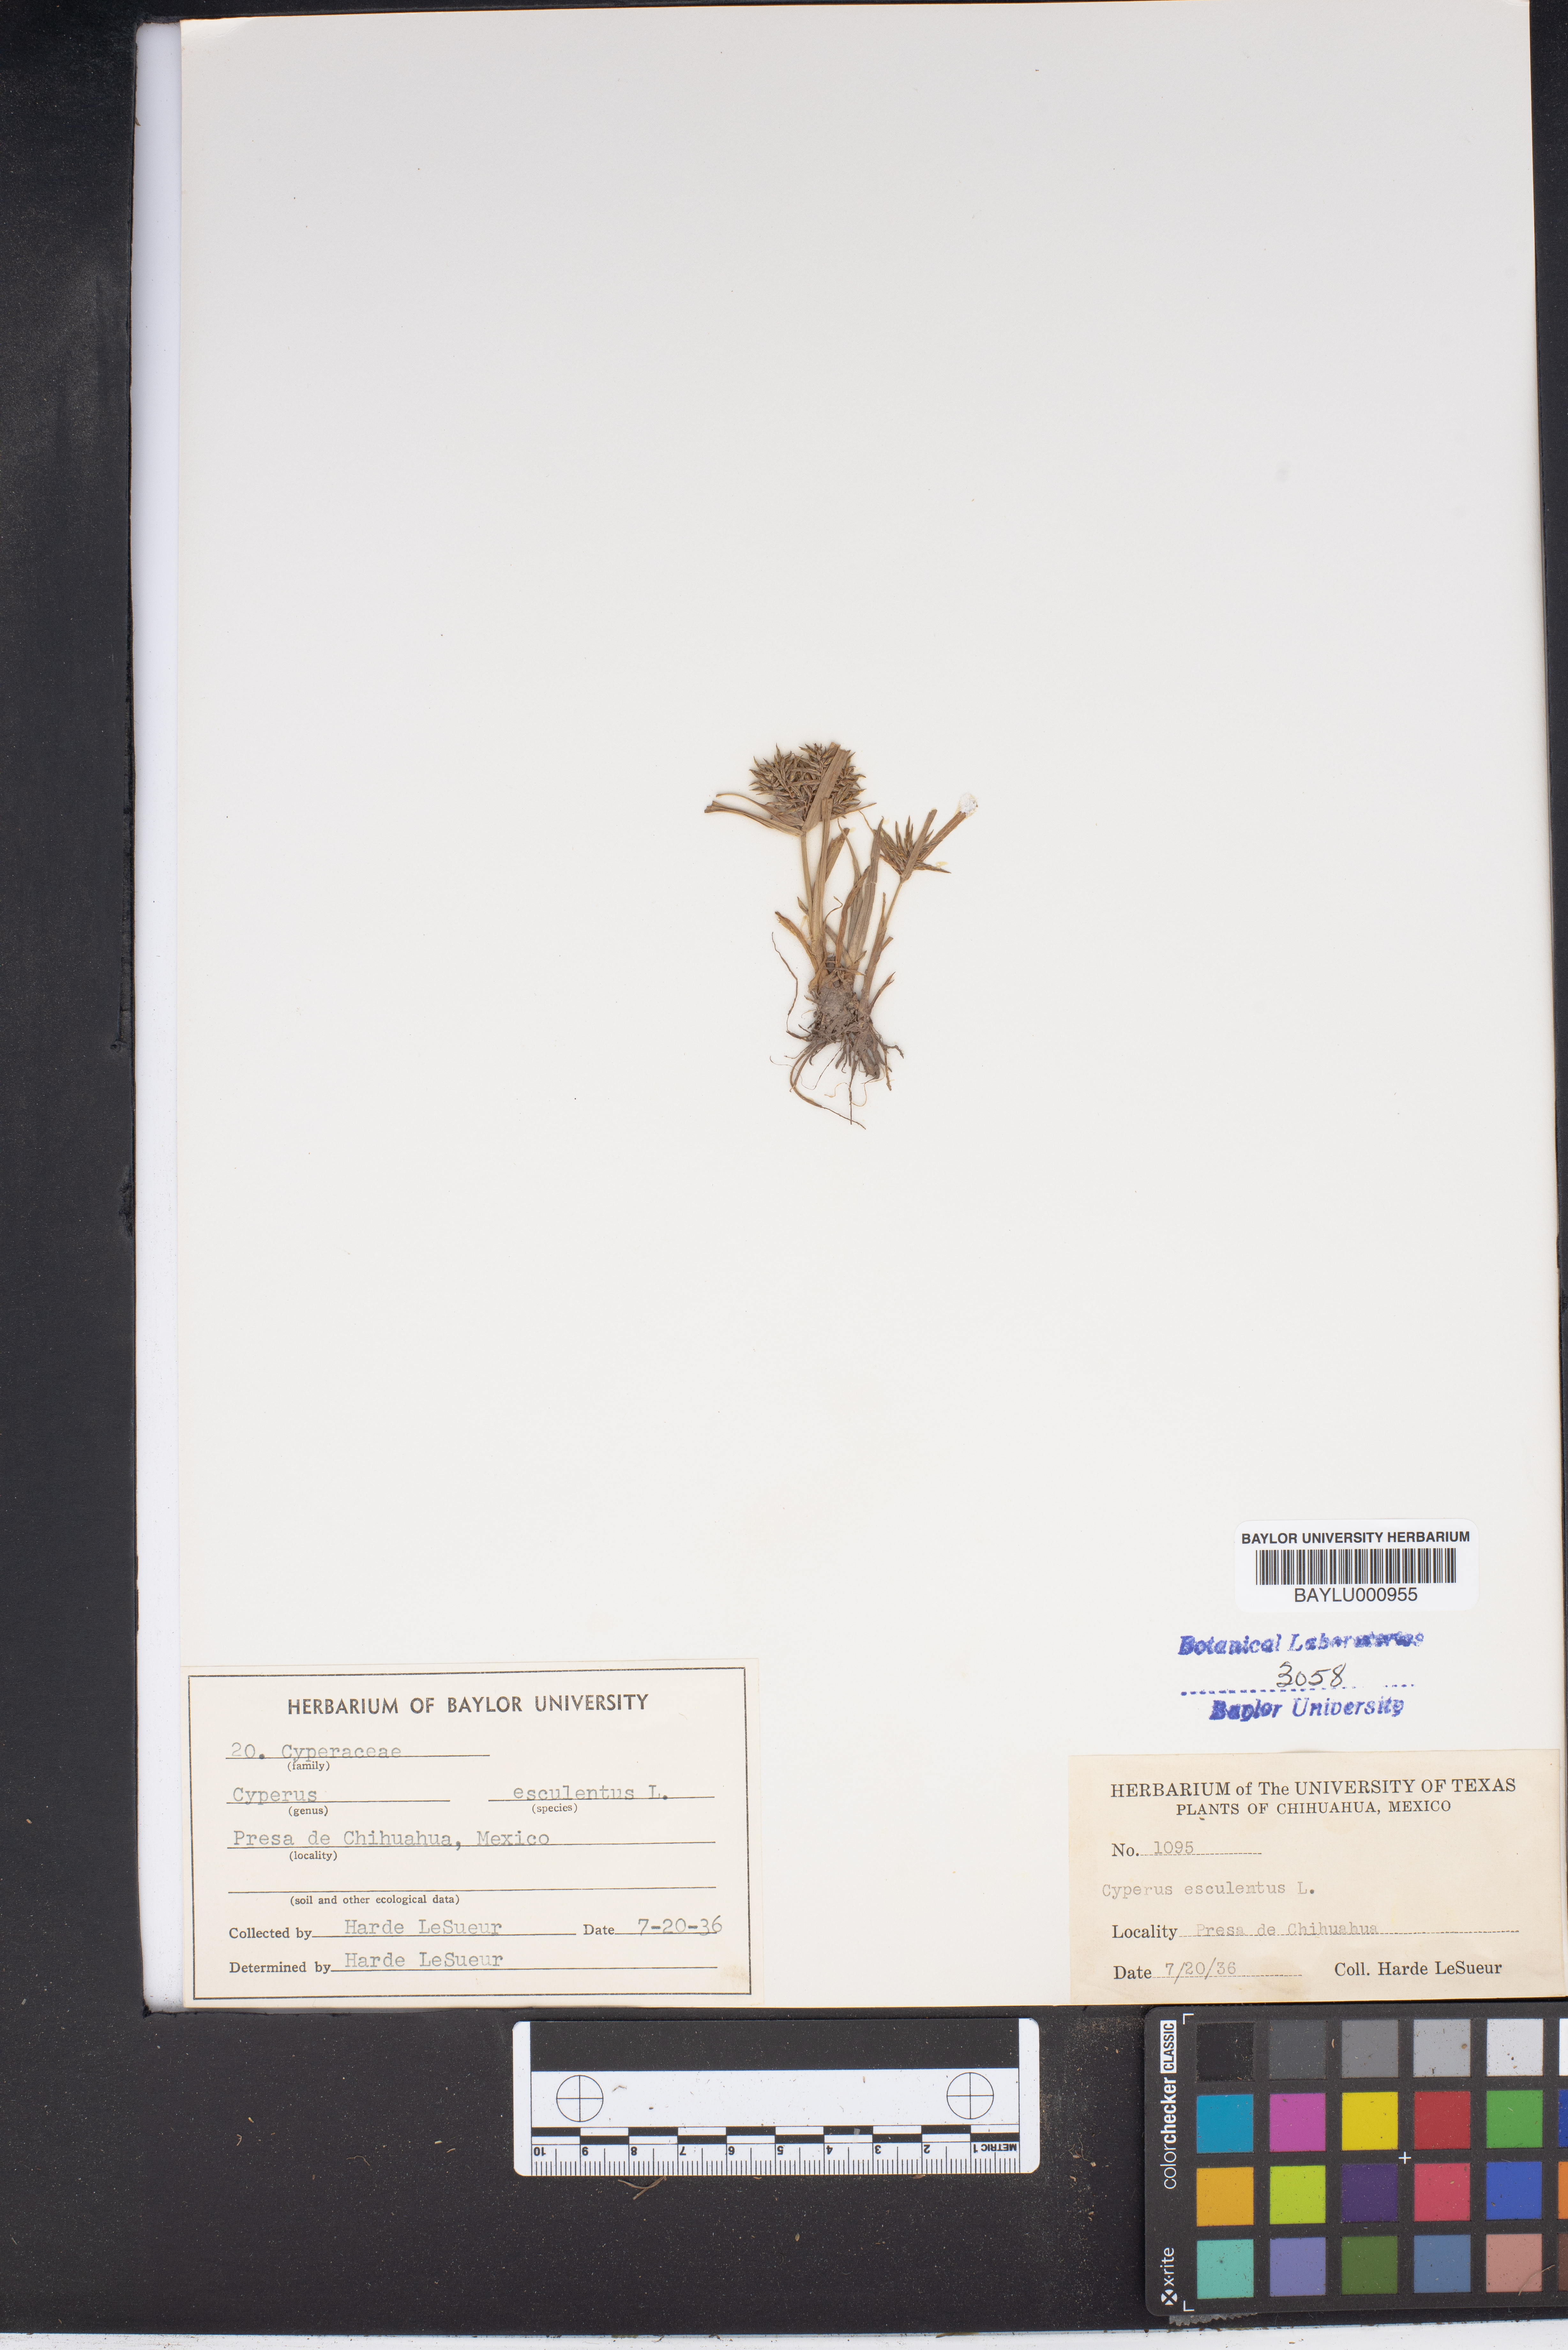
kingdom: Plantae
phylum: Tracheophyta
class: Liliopsida
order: Poales
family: Cyperaceae
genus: Cyperus
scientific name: Cyperus esculentus
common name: Yellow nutsedge
